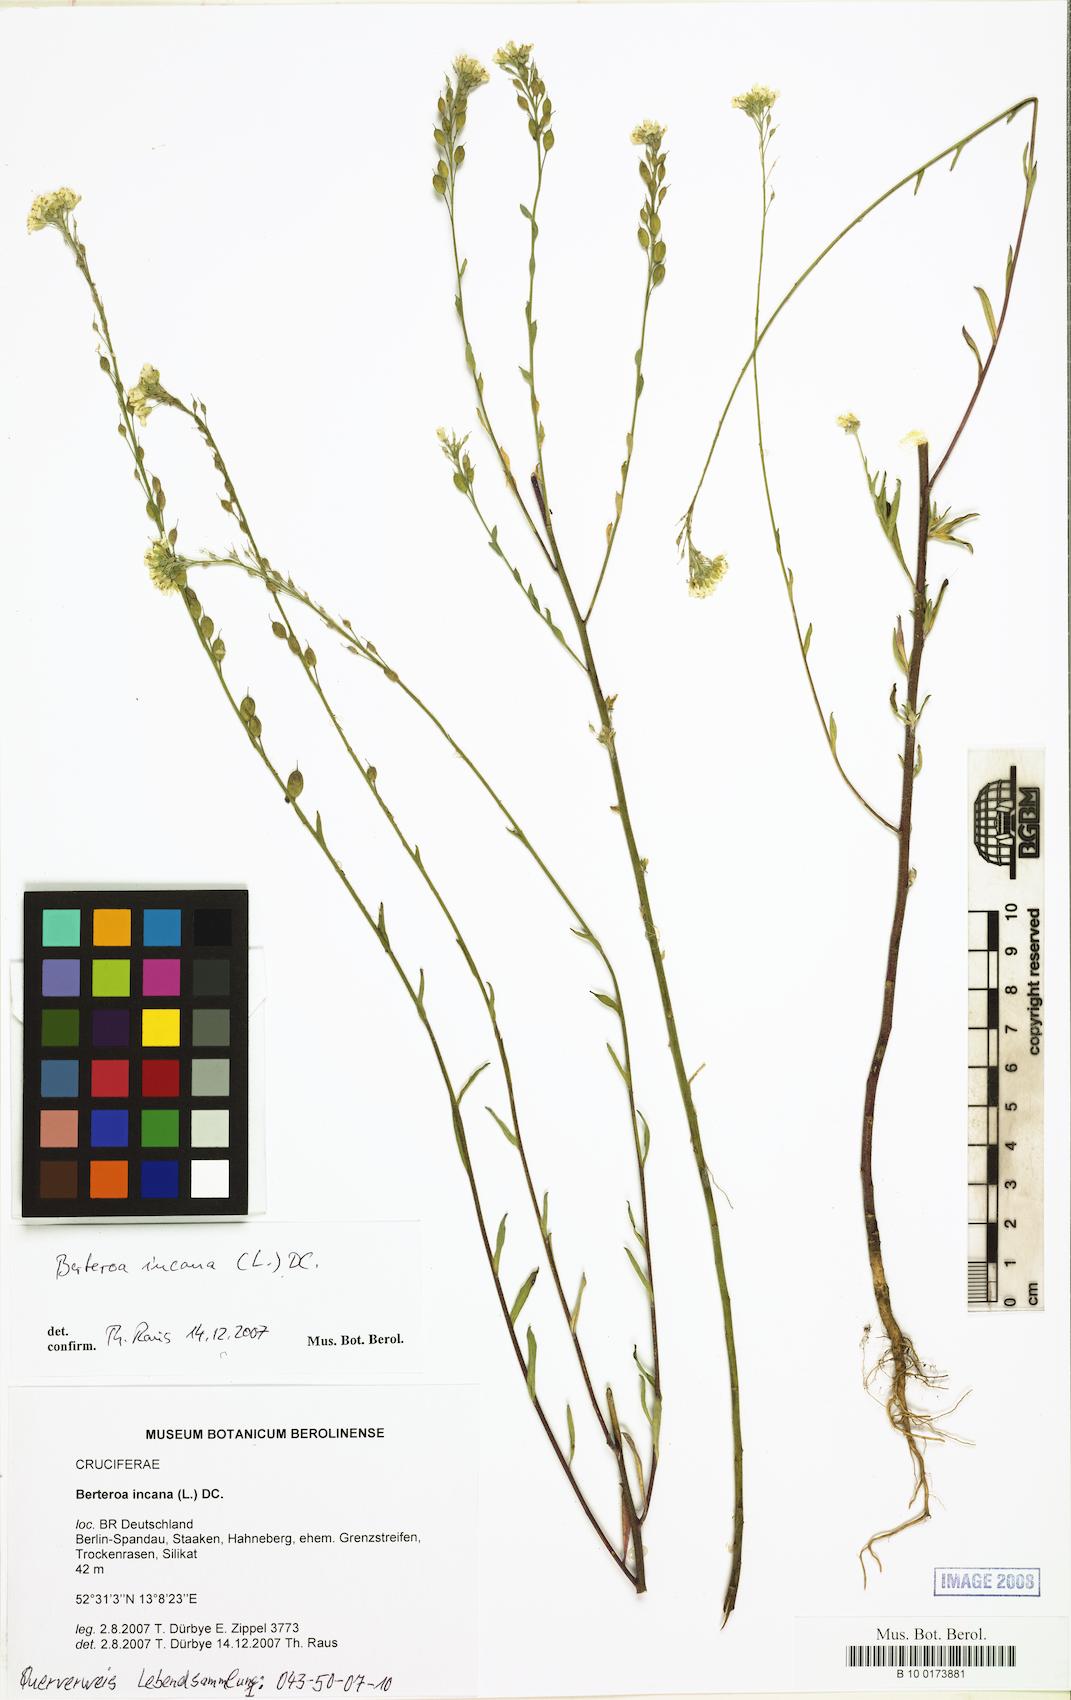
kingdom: Plantae
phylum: Tracheophyta
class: Magnoliopsida
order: Brassicales
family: Brassicaceae
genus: Berteroa
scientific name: Berteroa incana
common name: Hoary alison
